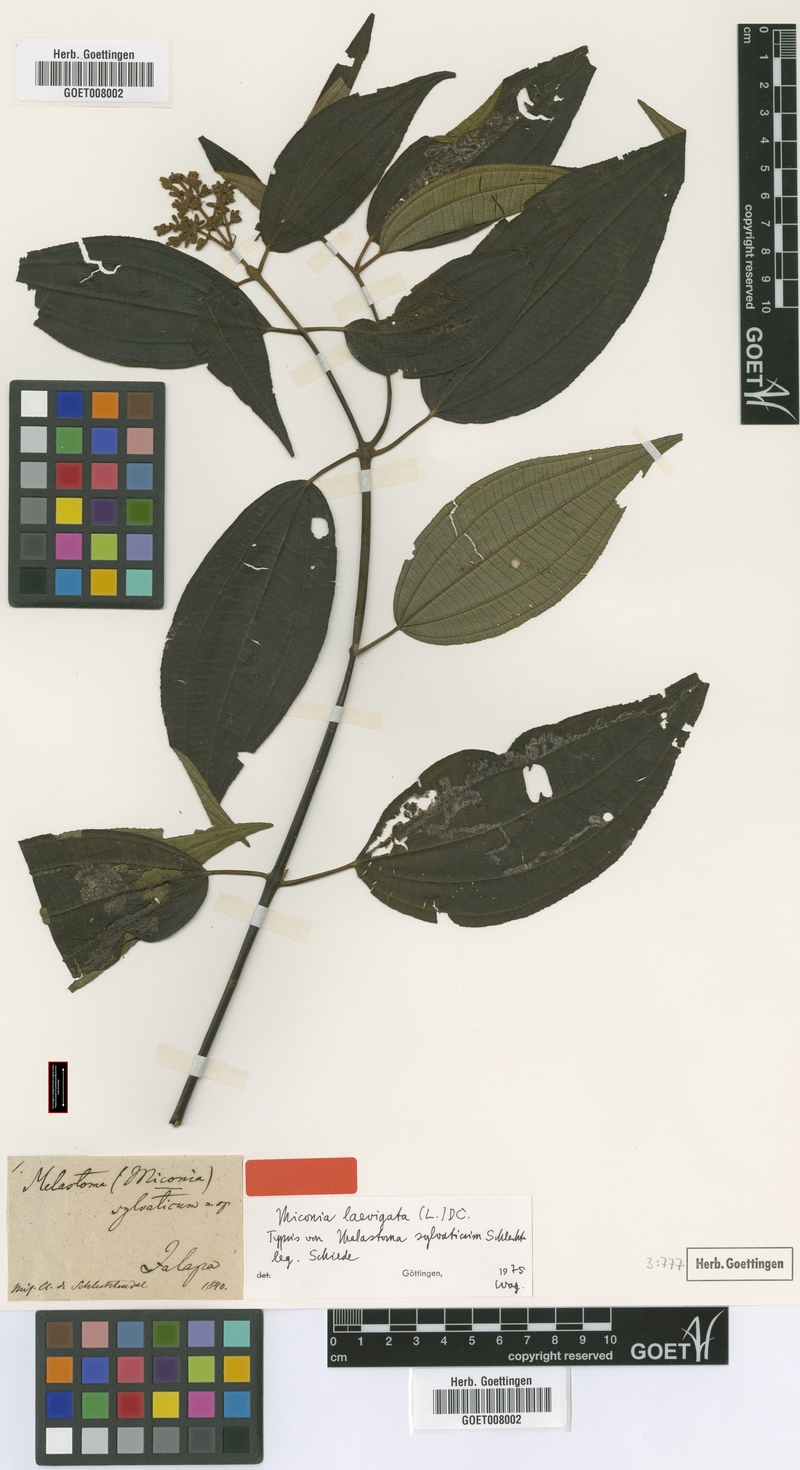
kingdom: Plantae
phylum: Tracheophyta
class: Magnoliopsida
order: Myrtales
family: Melastomataceae
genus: Miconia
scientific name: Miconia laevigata
